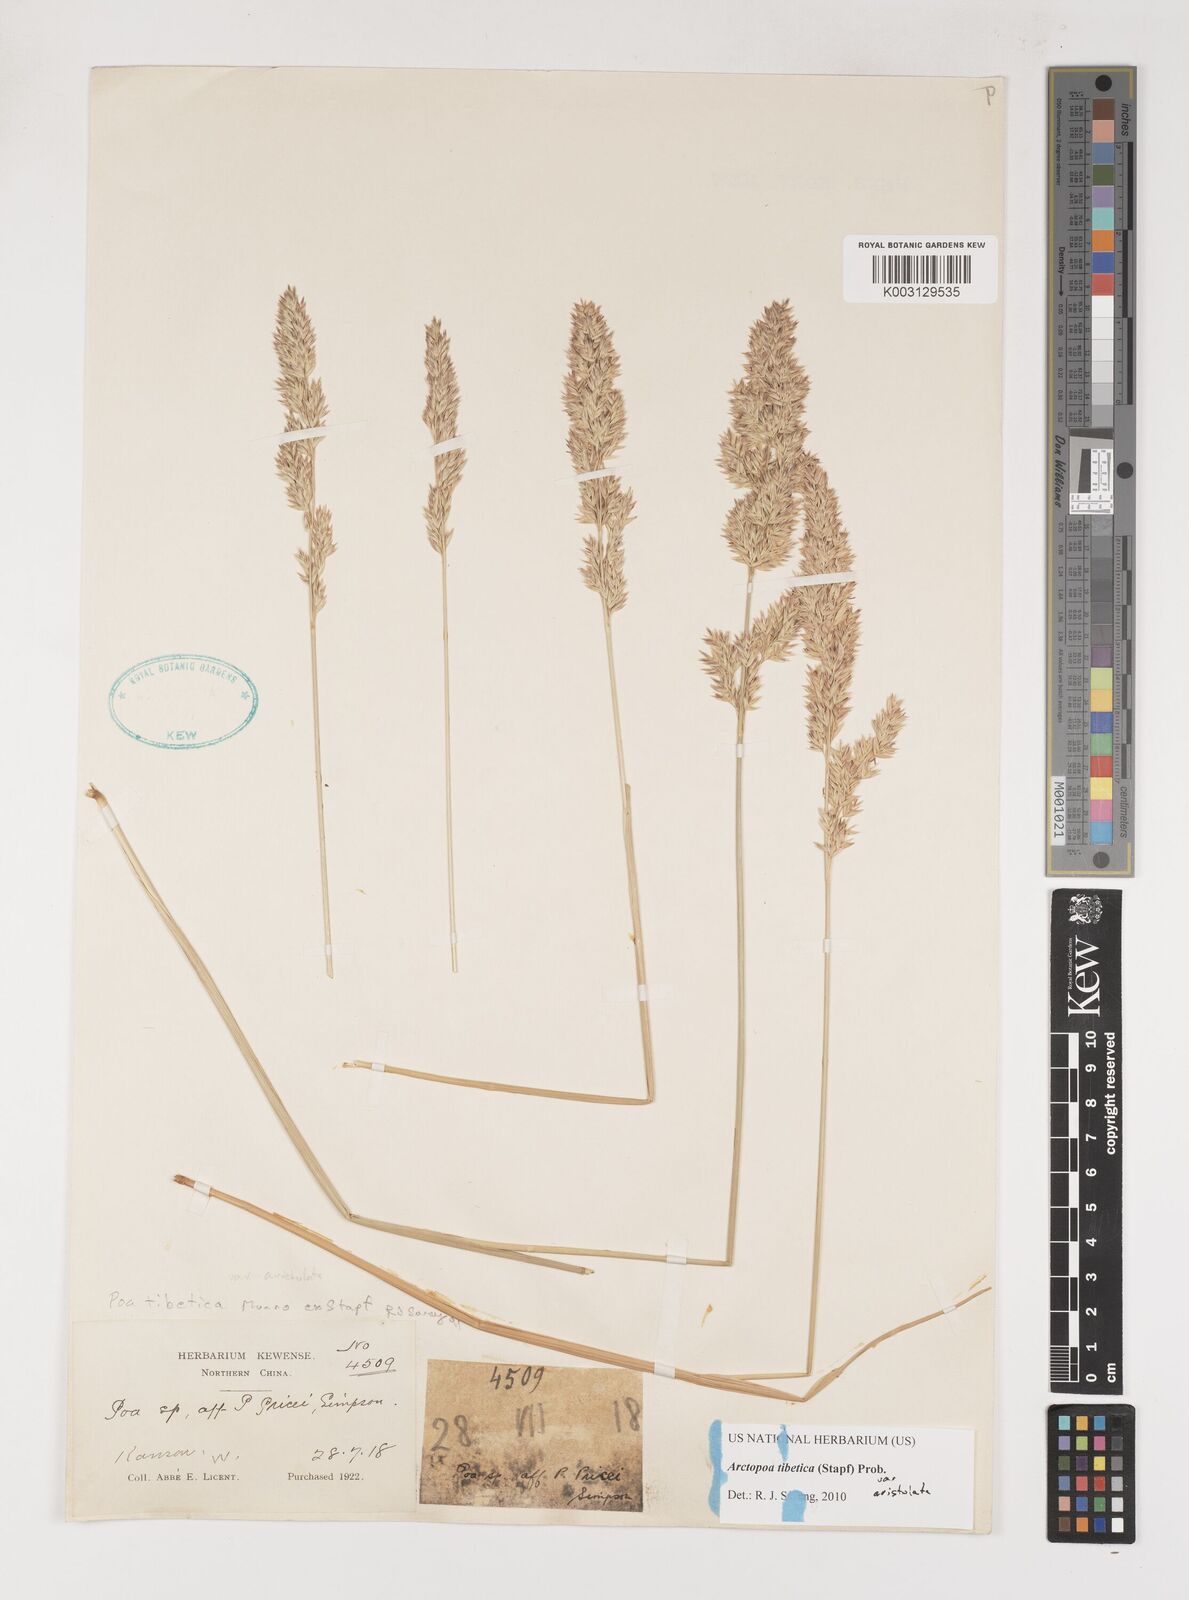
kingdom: Plantae
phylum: Tracheophyta
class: Liliopsida
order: Poales
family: Poaceae
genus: Arctopoa
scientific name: Arctopoa tibetica
